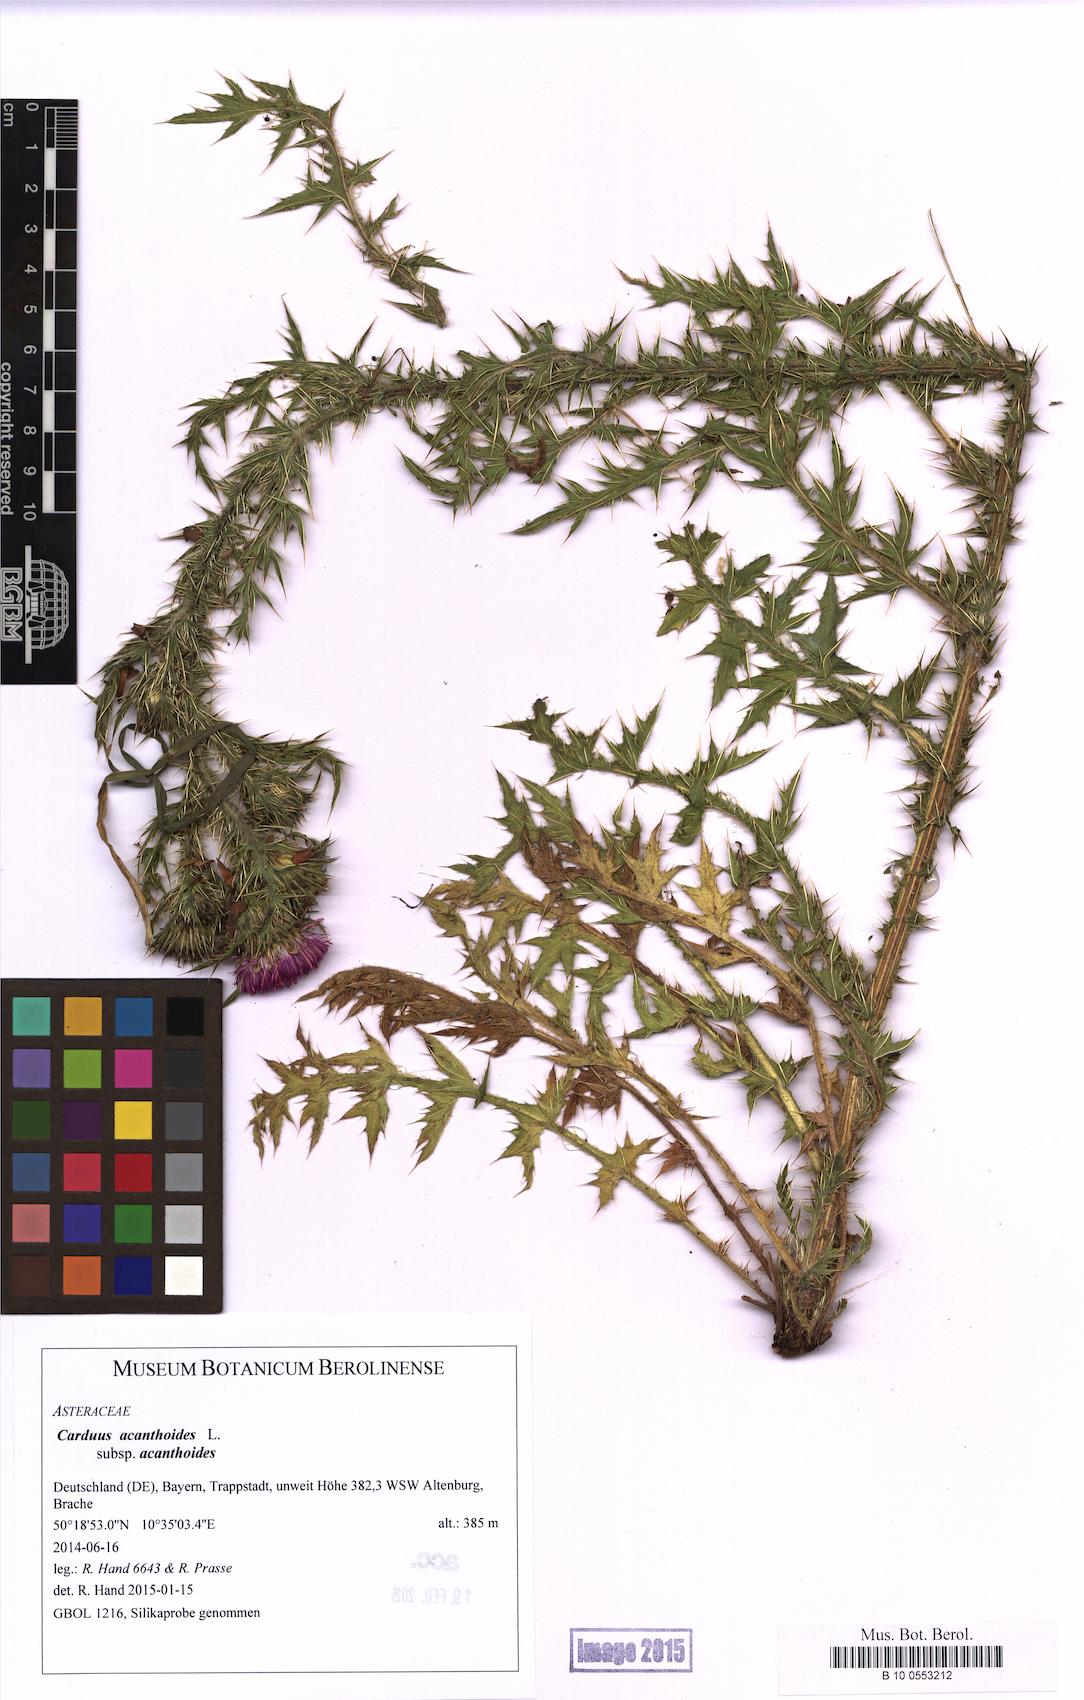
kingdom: Plantae
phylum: Tracheophyta
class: Magnoliopsida
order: Asterales
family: Asteraceae
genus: Carduus
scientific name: Carduus acanthoides
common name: Plumeless thistle
